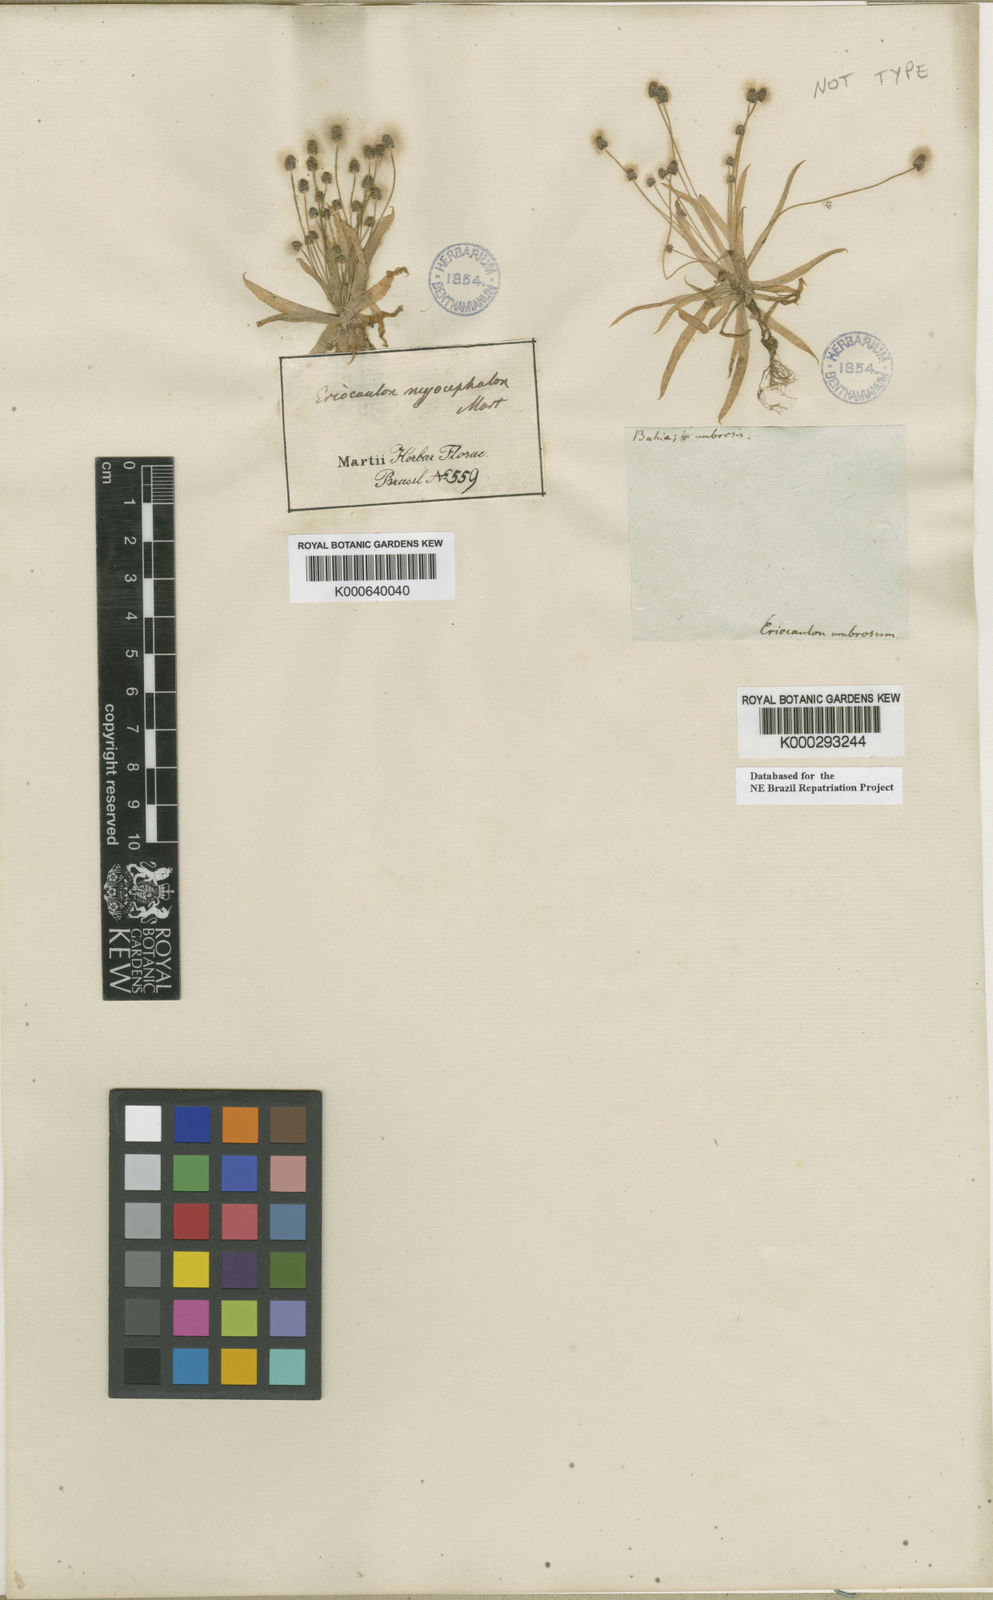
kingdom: Plantae
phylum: Tracheophyta
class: Liliopsida
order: Poales
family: Eriocaulaceae
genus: Paepalanthus
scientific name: Paepalanthus
